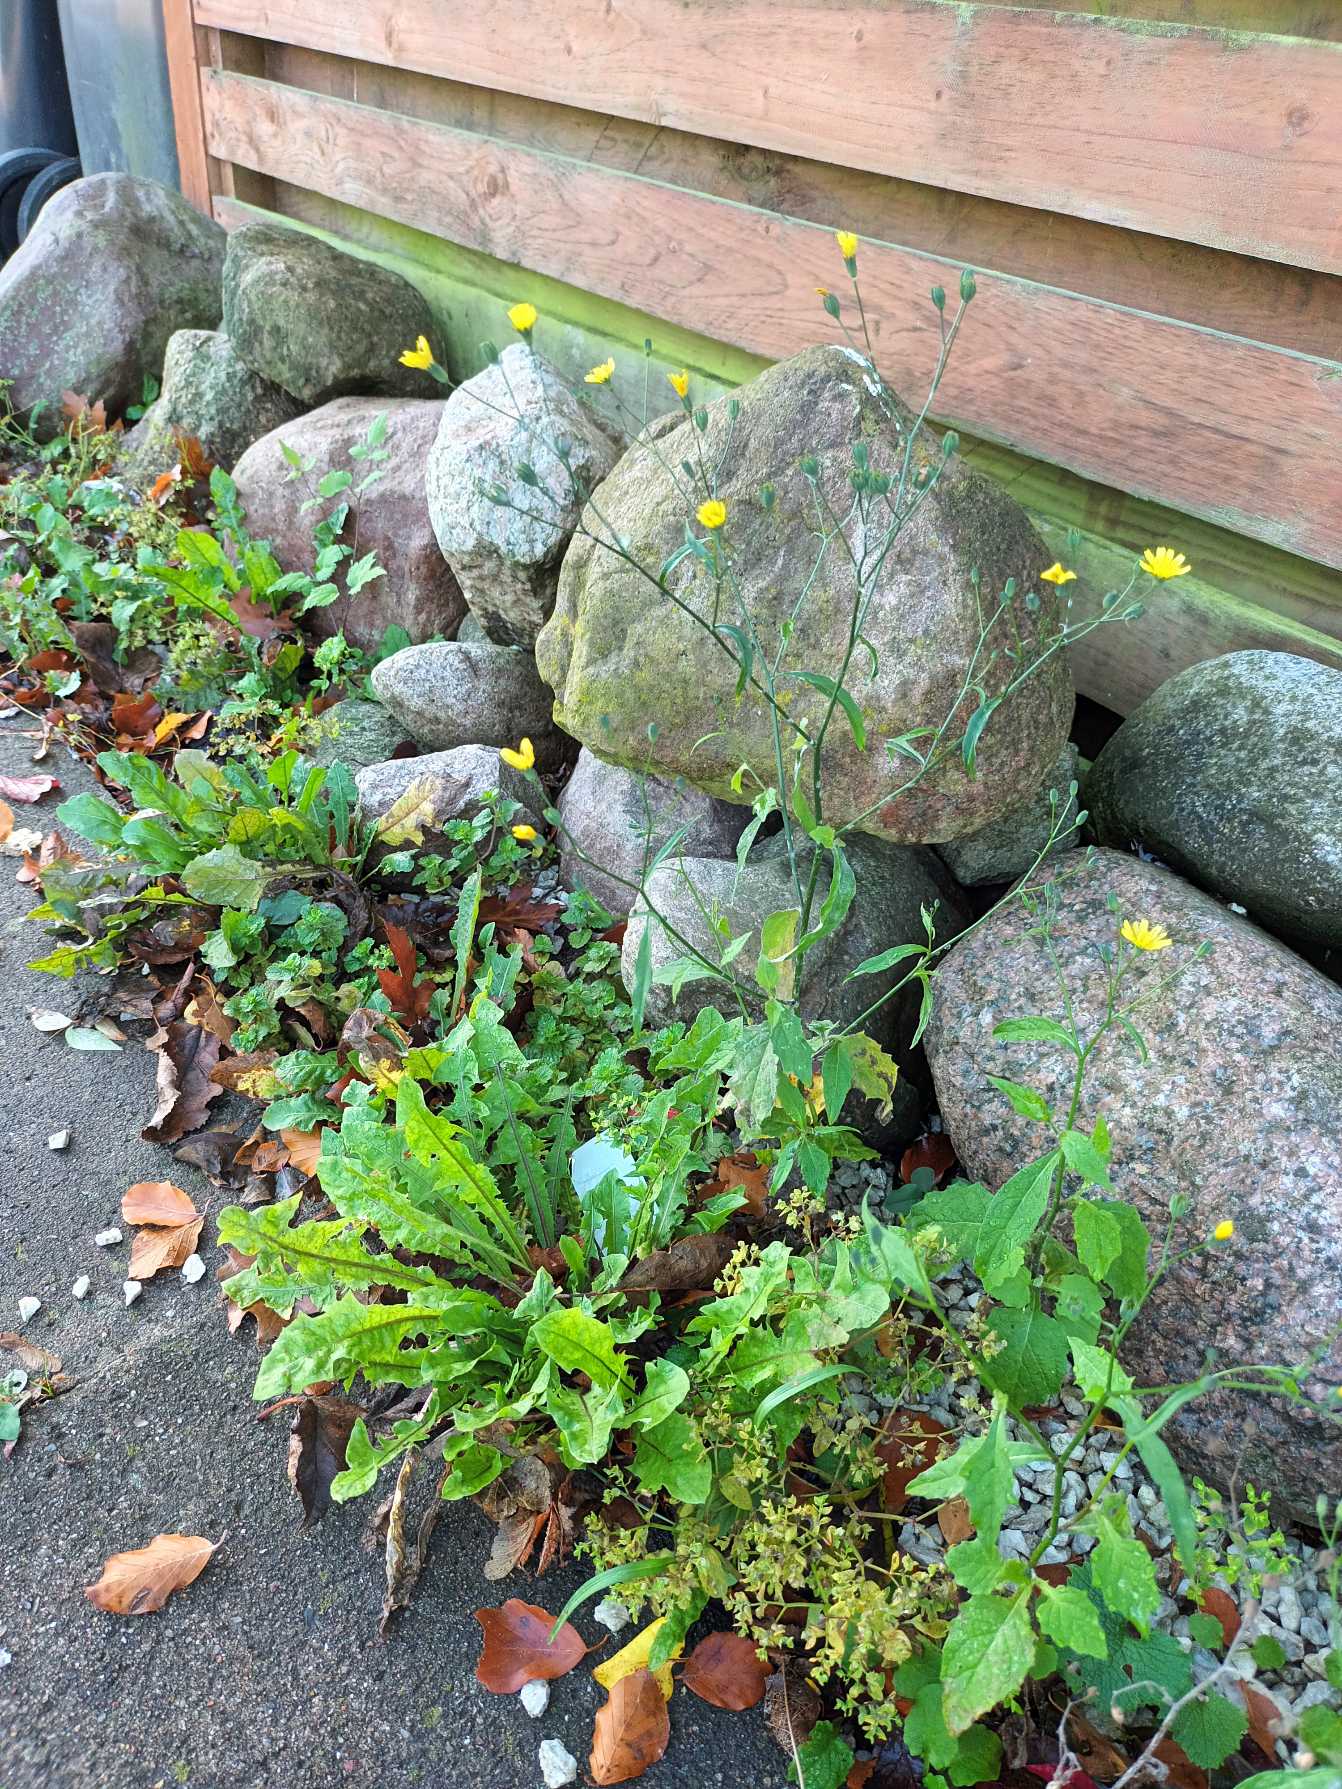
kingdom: Plantae
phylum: Tracheophyta
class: Magnoliopsida
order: Asterales
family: Asteraceae
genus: Lapsana
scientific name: Lapsana communis
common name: Haremad
